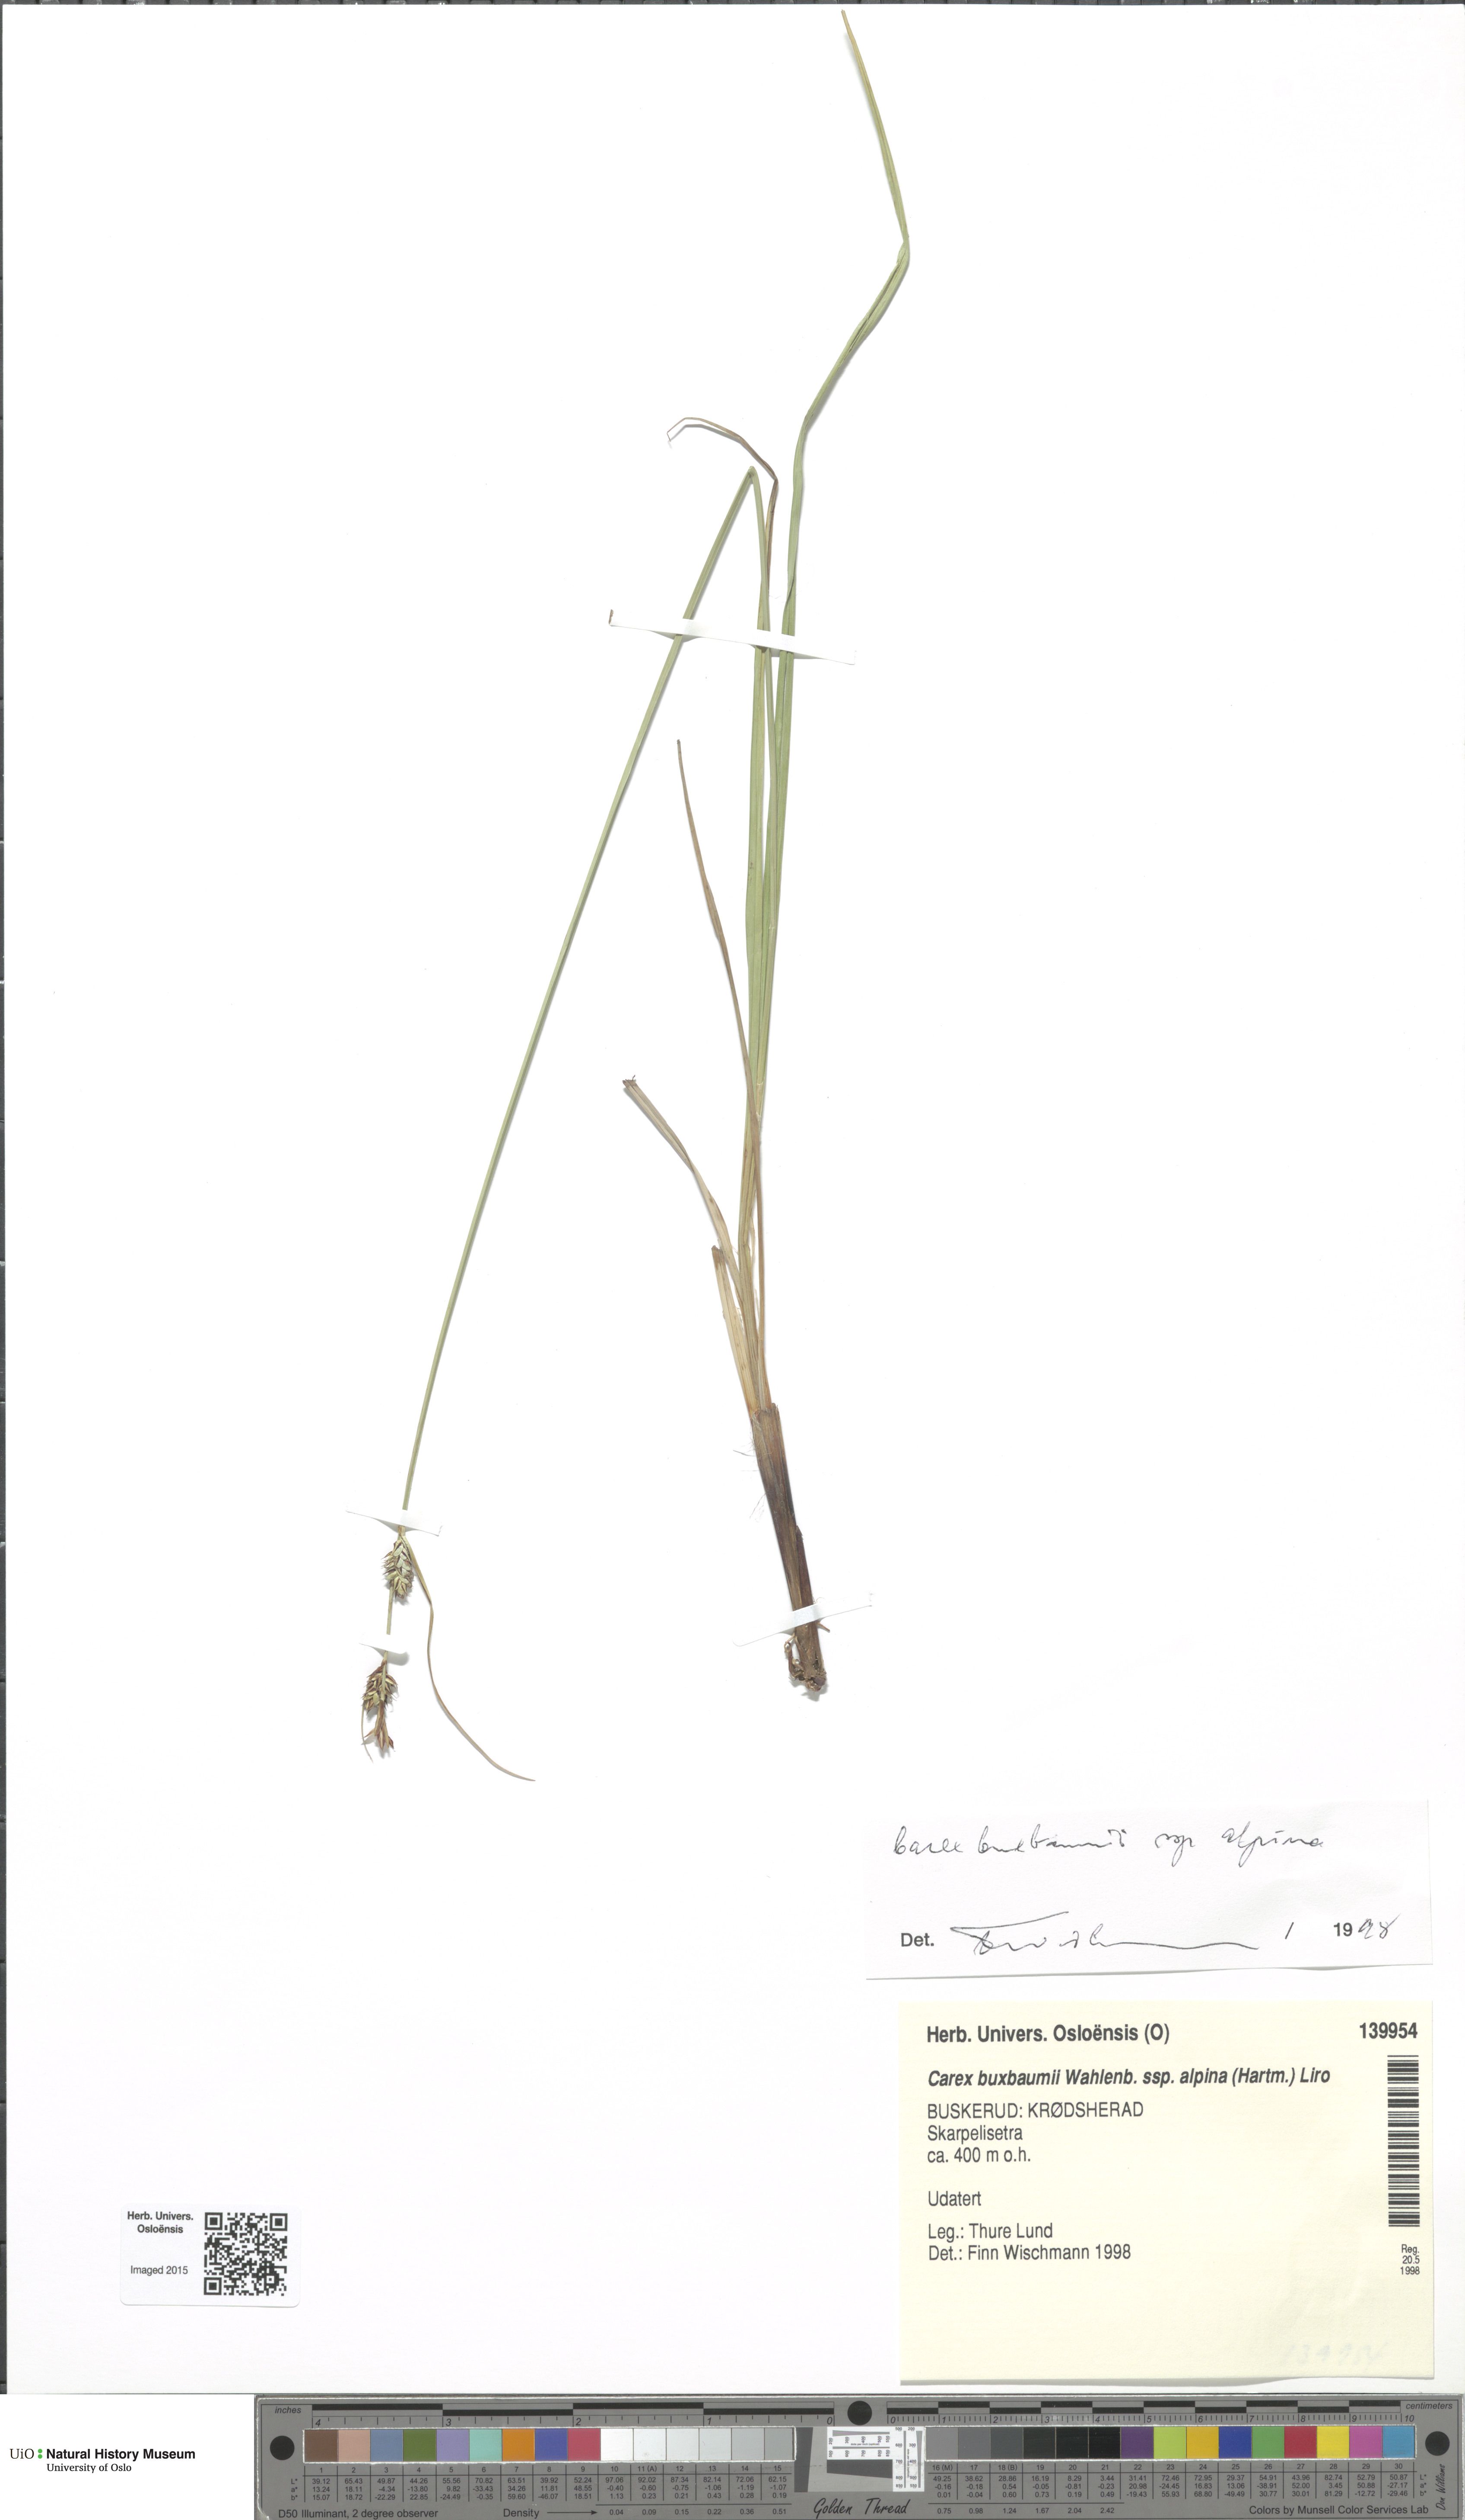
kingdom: Plantae
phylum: Tracheophyta
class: Liliopsida
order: Poales
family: Cyperaceae
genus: Carex
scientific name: Carex adelostoma
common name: Circumpolar sedge
